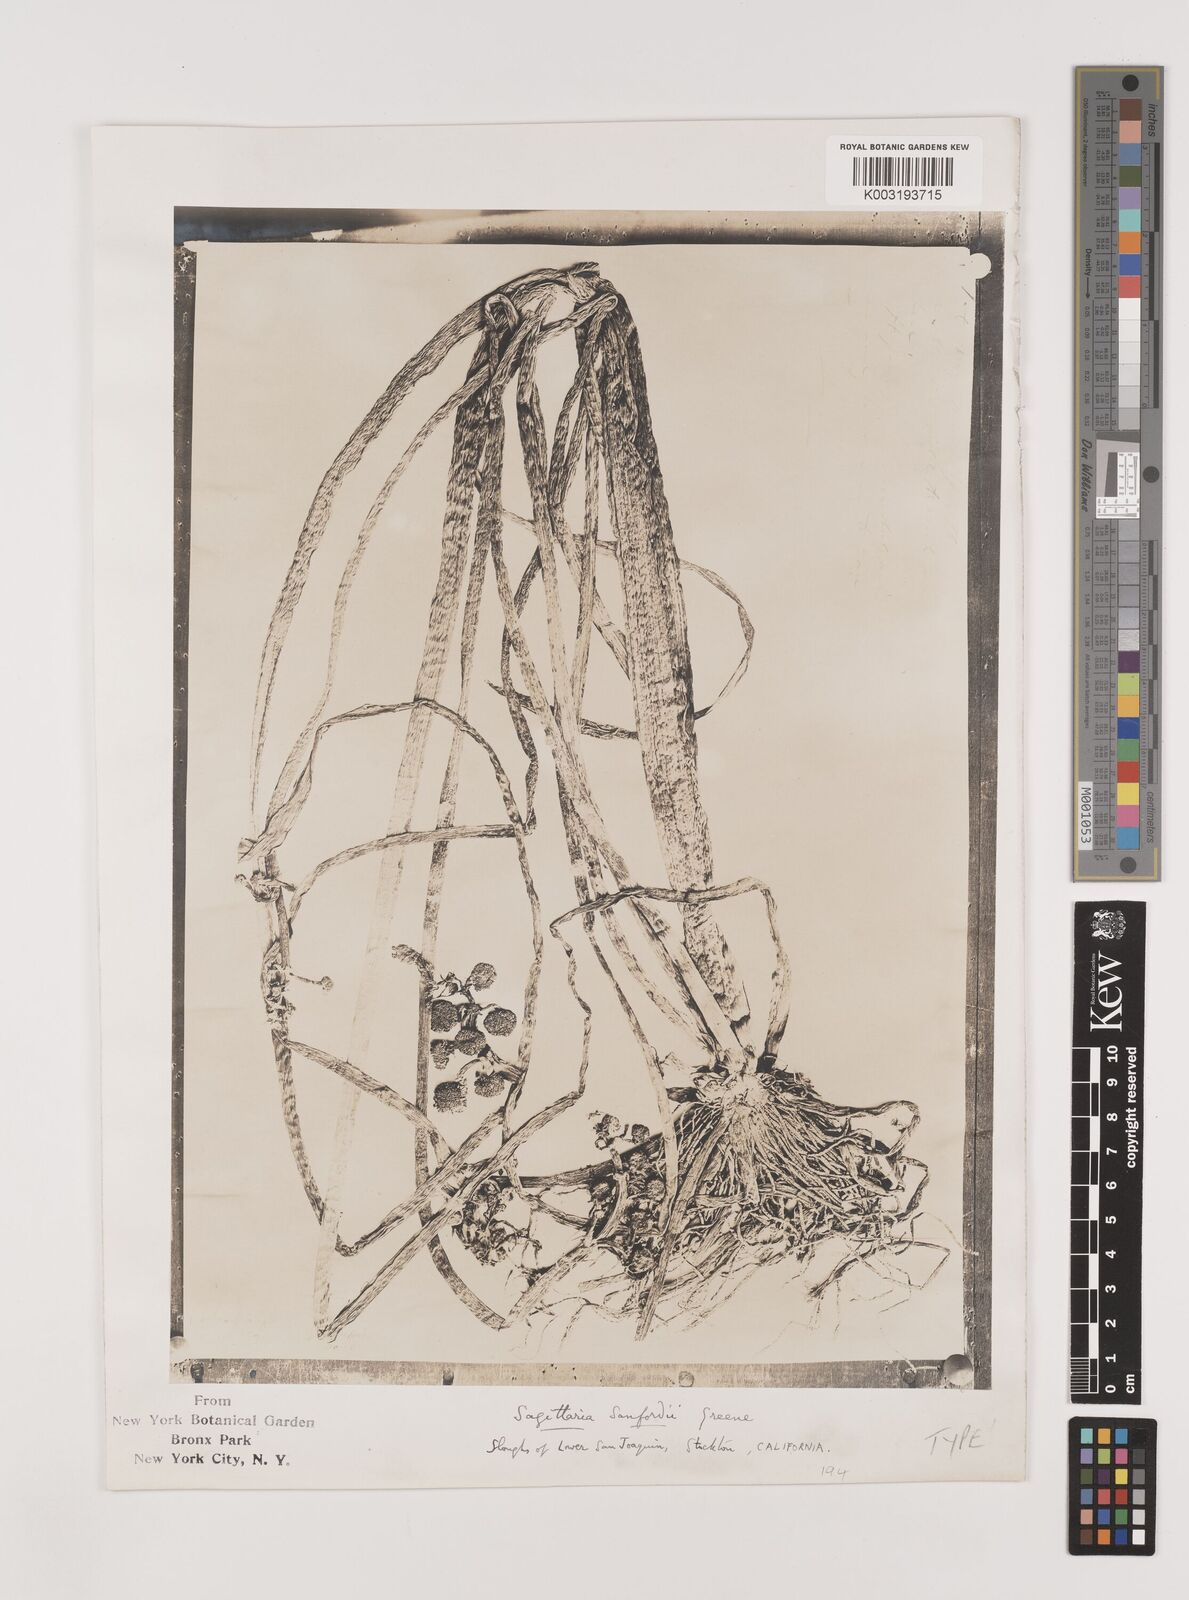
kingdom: Plantae
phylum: Tracheophyta
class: Liliopsida
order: Alismatales
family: Alismataceae
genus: Sagittaria
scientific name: Sagittaria sanfordii
